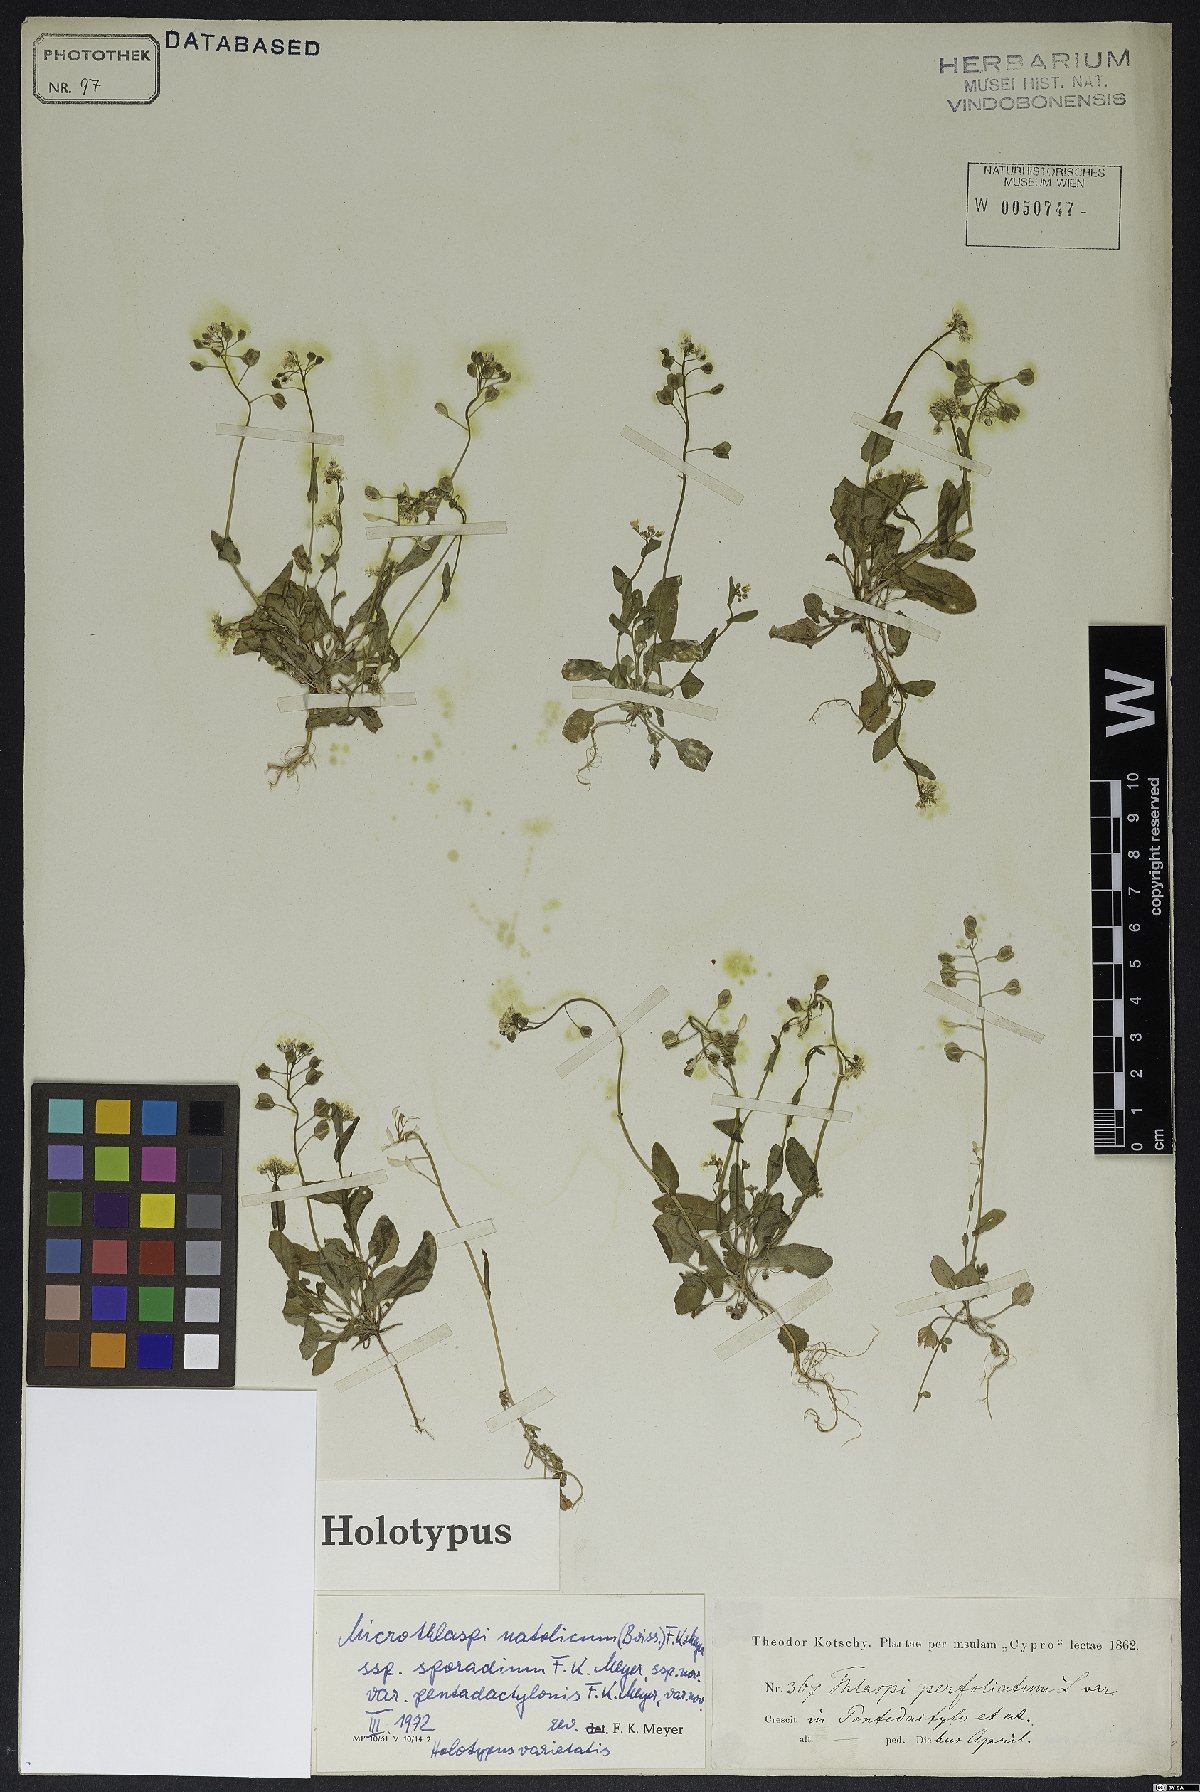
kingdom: Plantae
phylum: Tracheophyta
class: Magnoliopsida
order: Brassicales
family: Brassicaceae
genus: Noccaea
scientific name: Noccaea natolica
